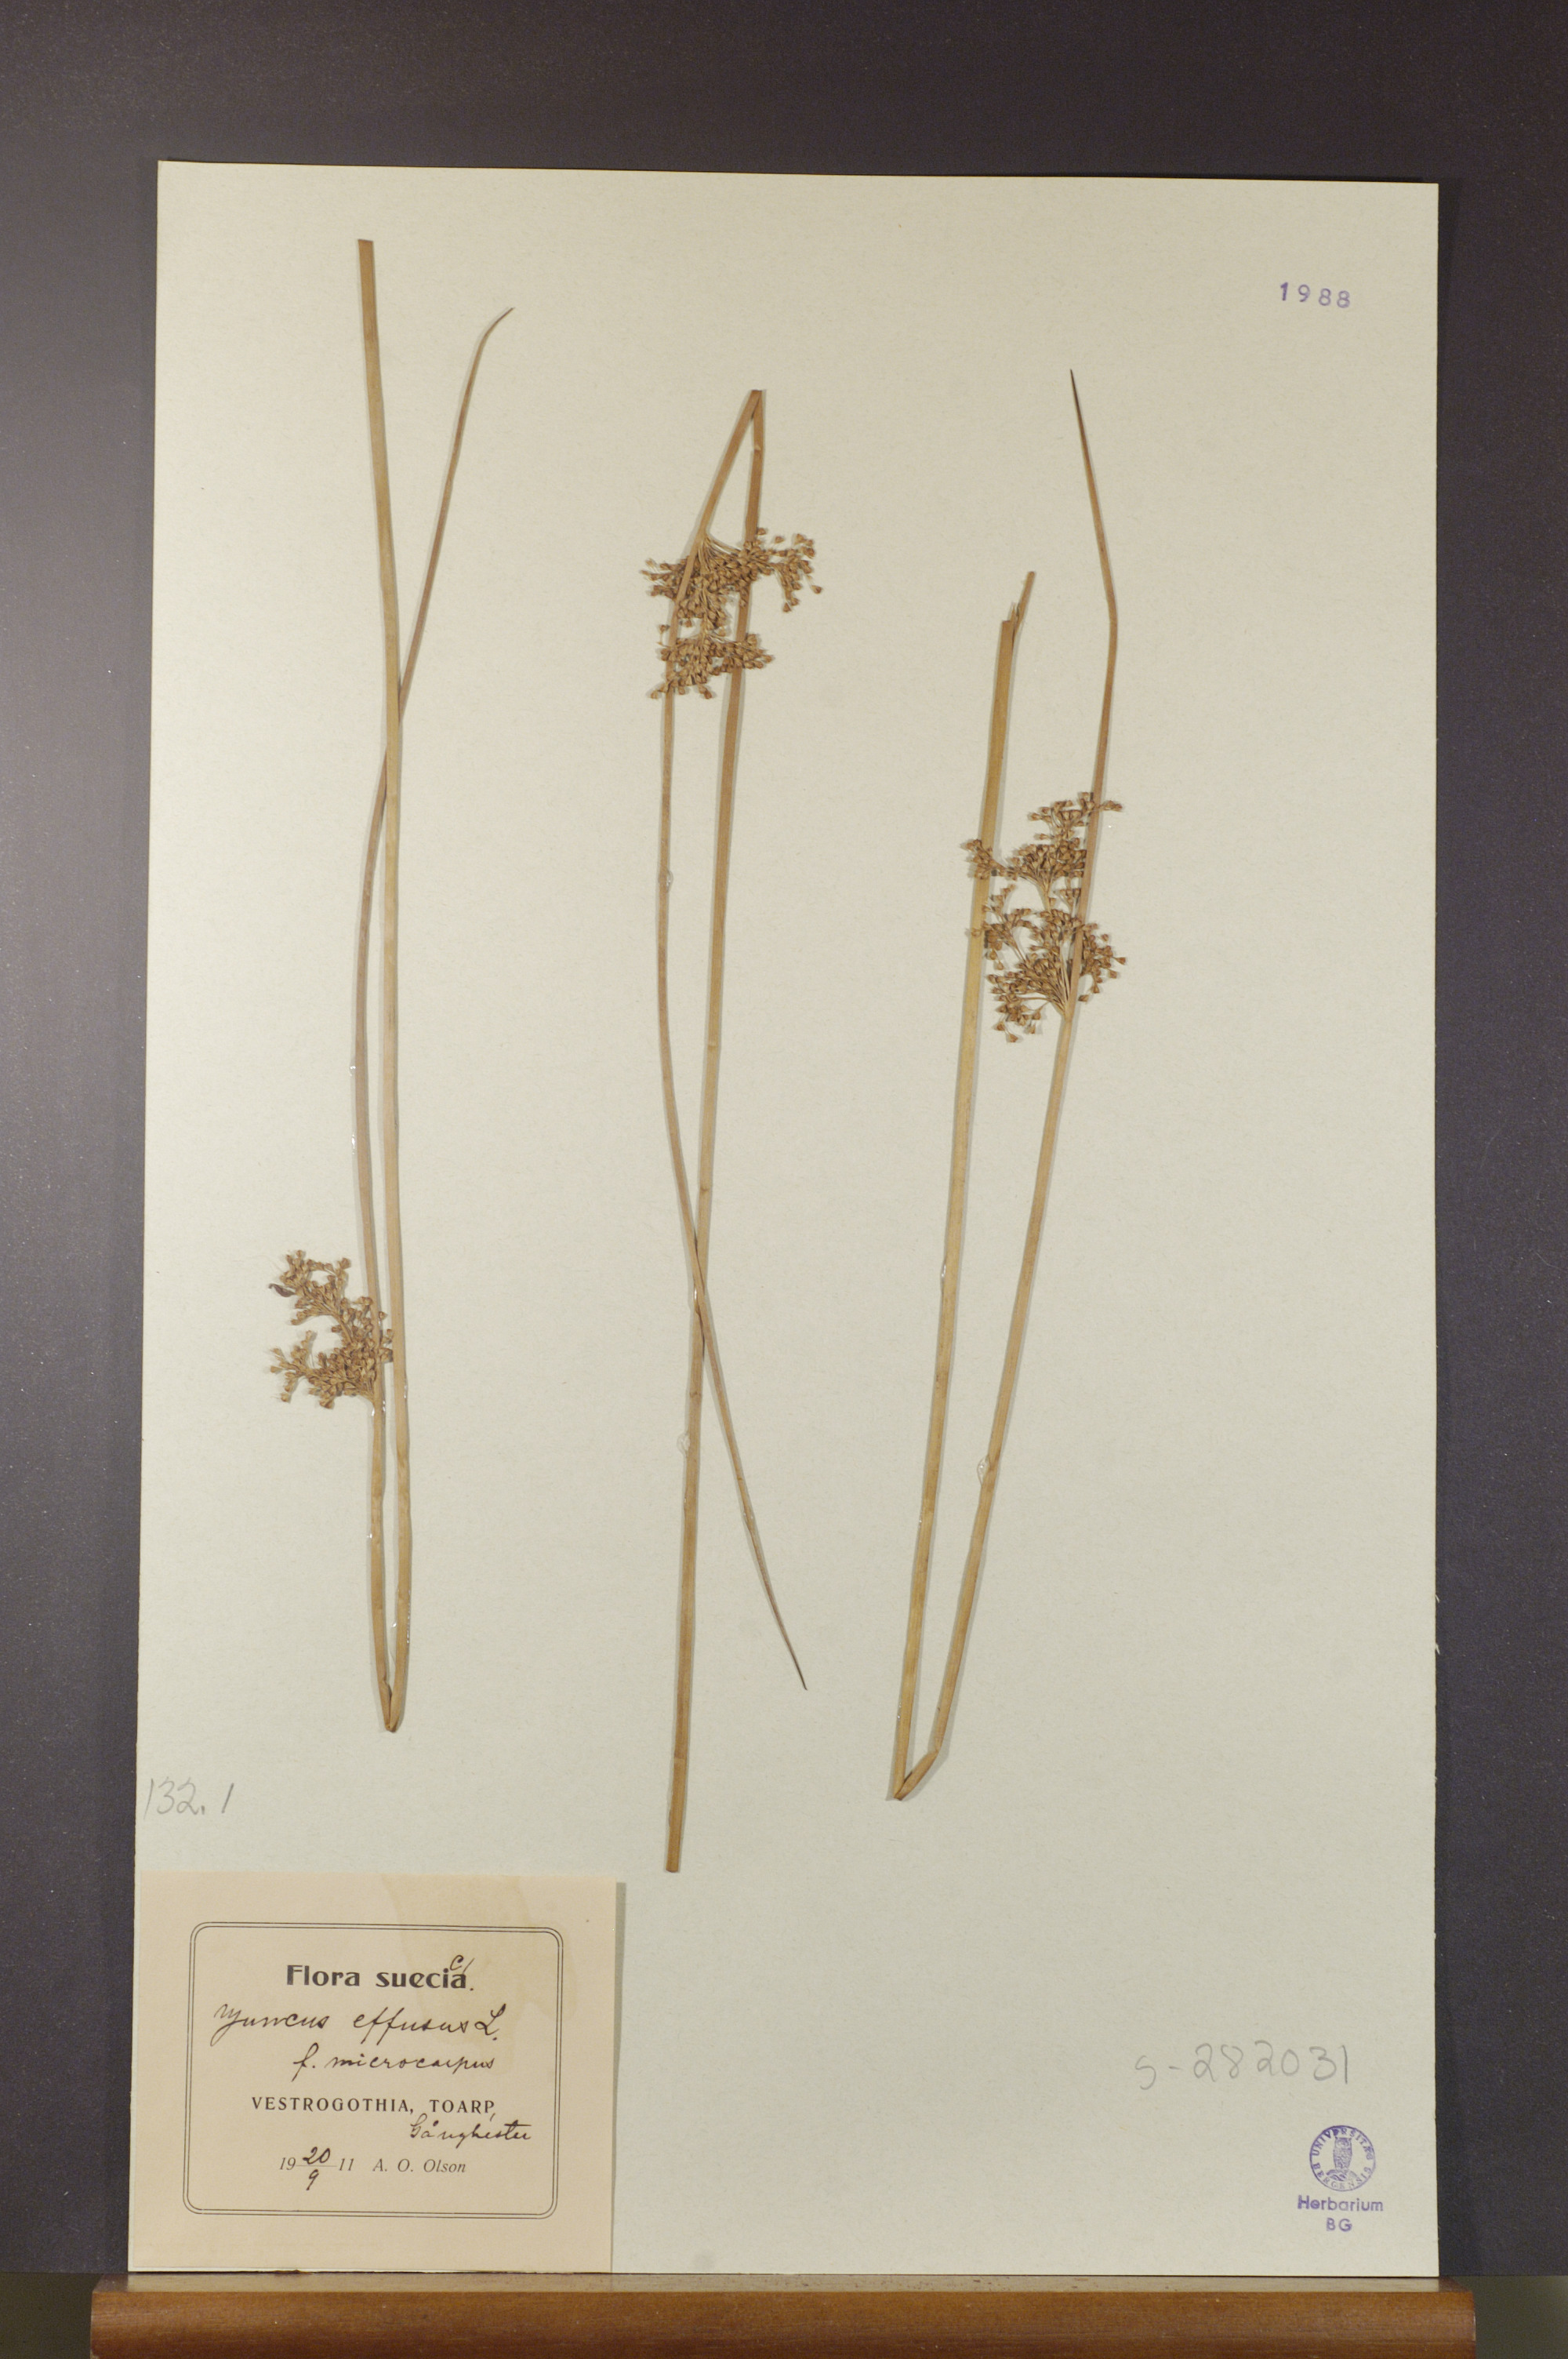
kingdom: Plantae
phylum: Tracheophyta
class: Liliopsida
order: Poales
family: Juncaceae
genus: Juncus
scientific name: Juncus effusus
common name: Soft rush
